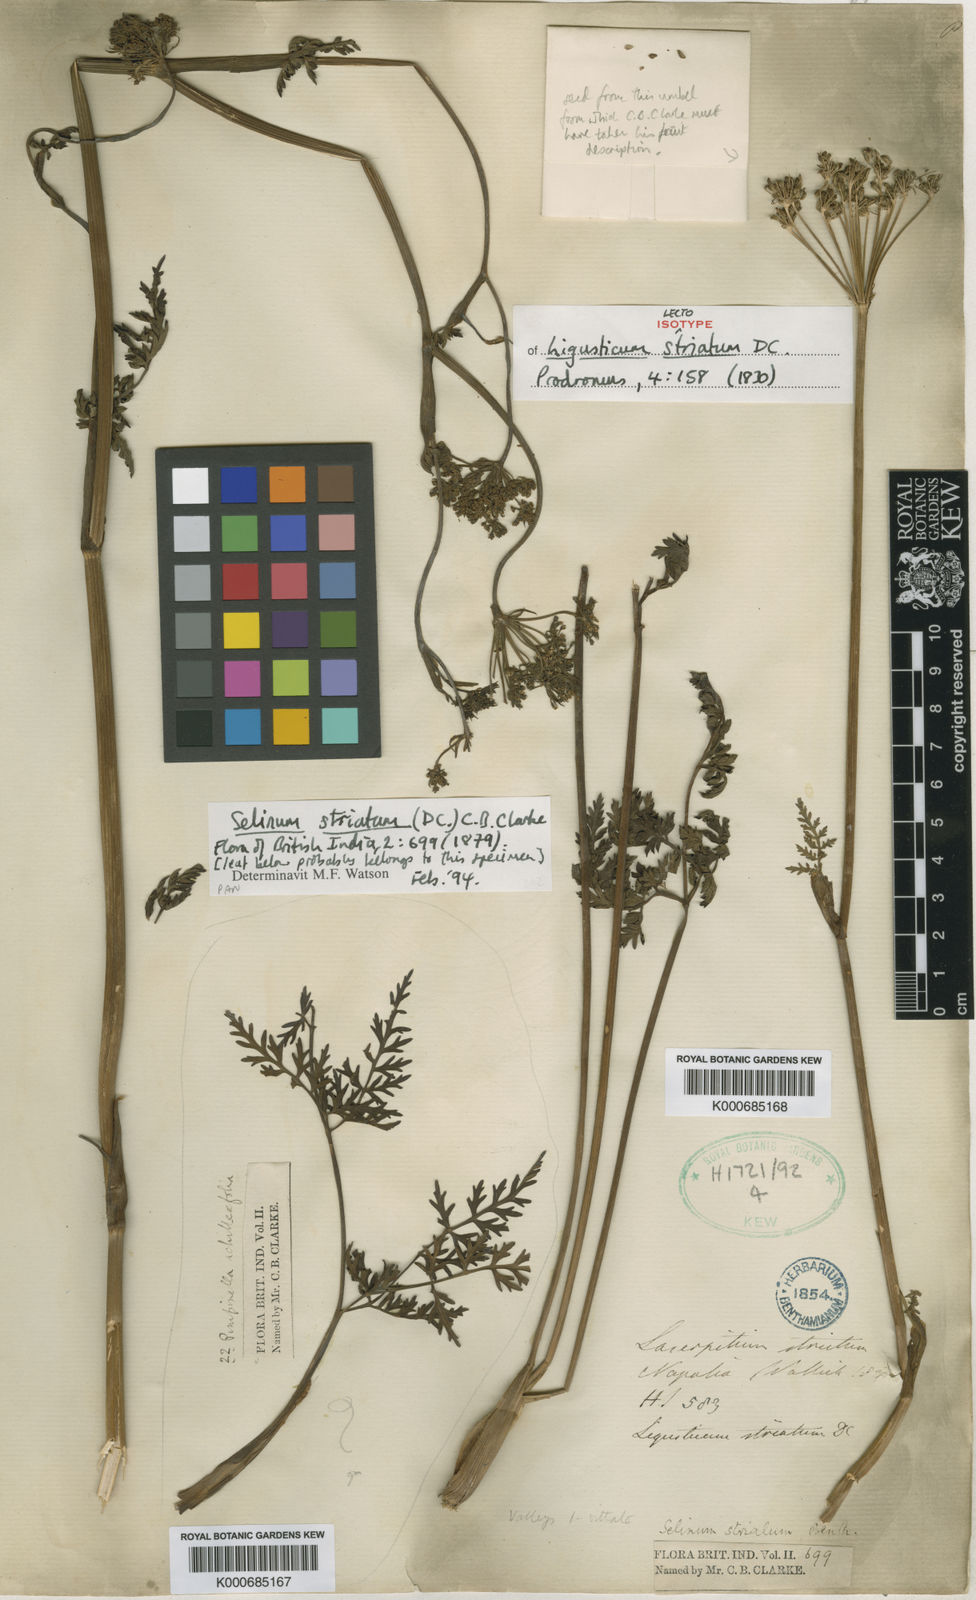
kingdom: Plantae
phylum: Tracheophyta
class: Magnoliopsida
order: Apiales
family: Apiaceae
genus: Oreocome
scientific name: Oreocome striata
